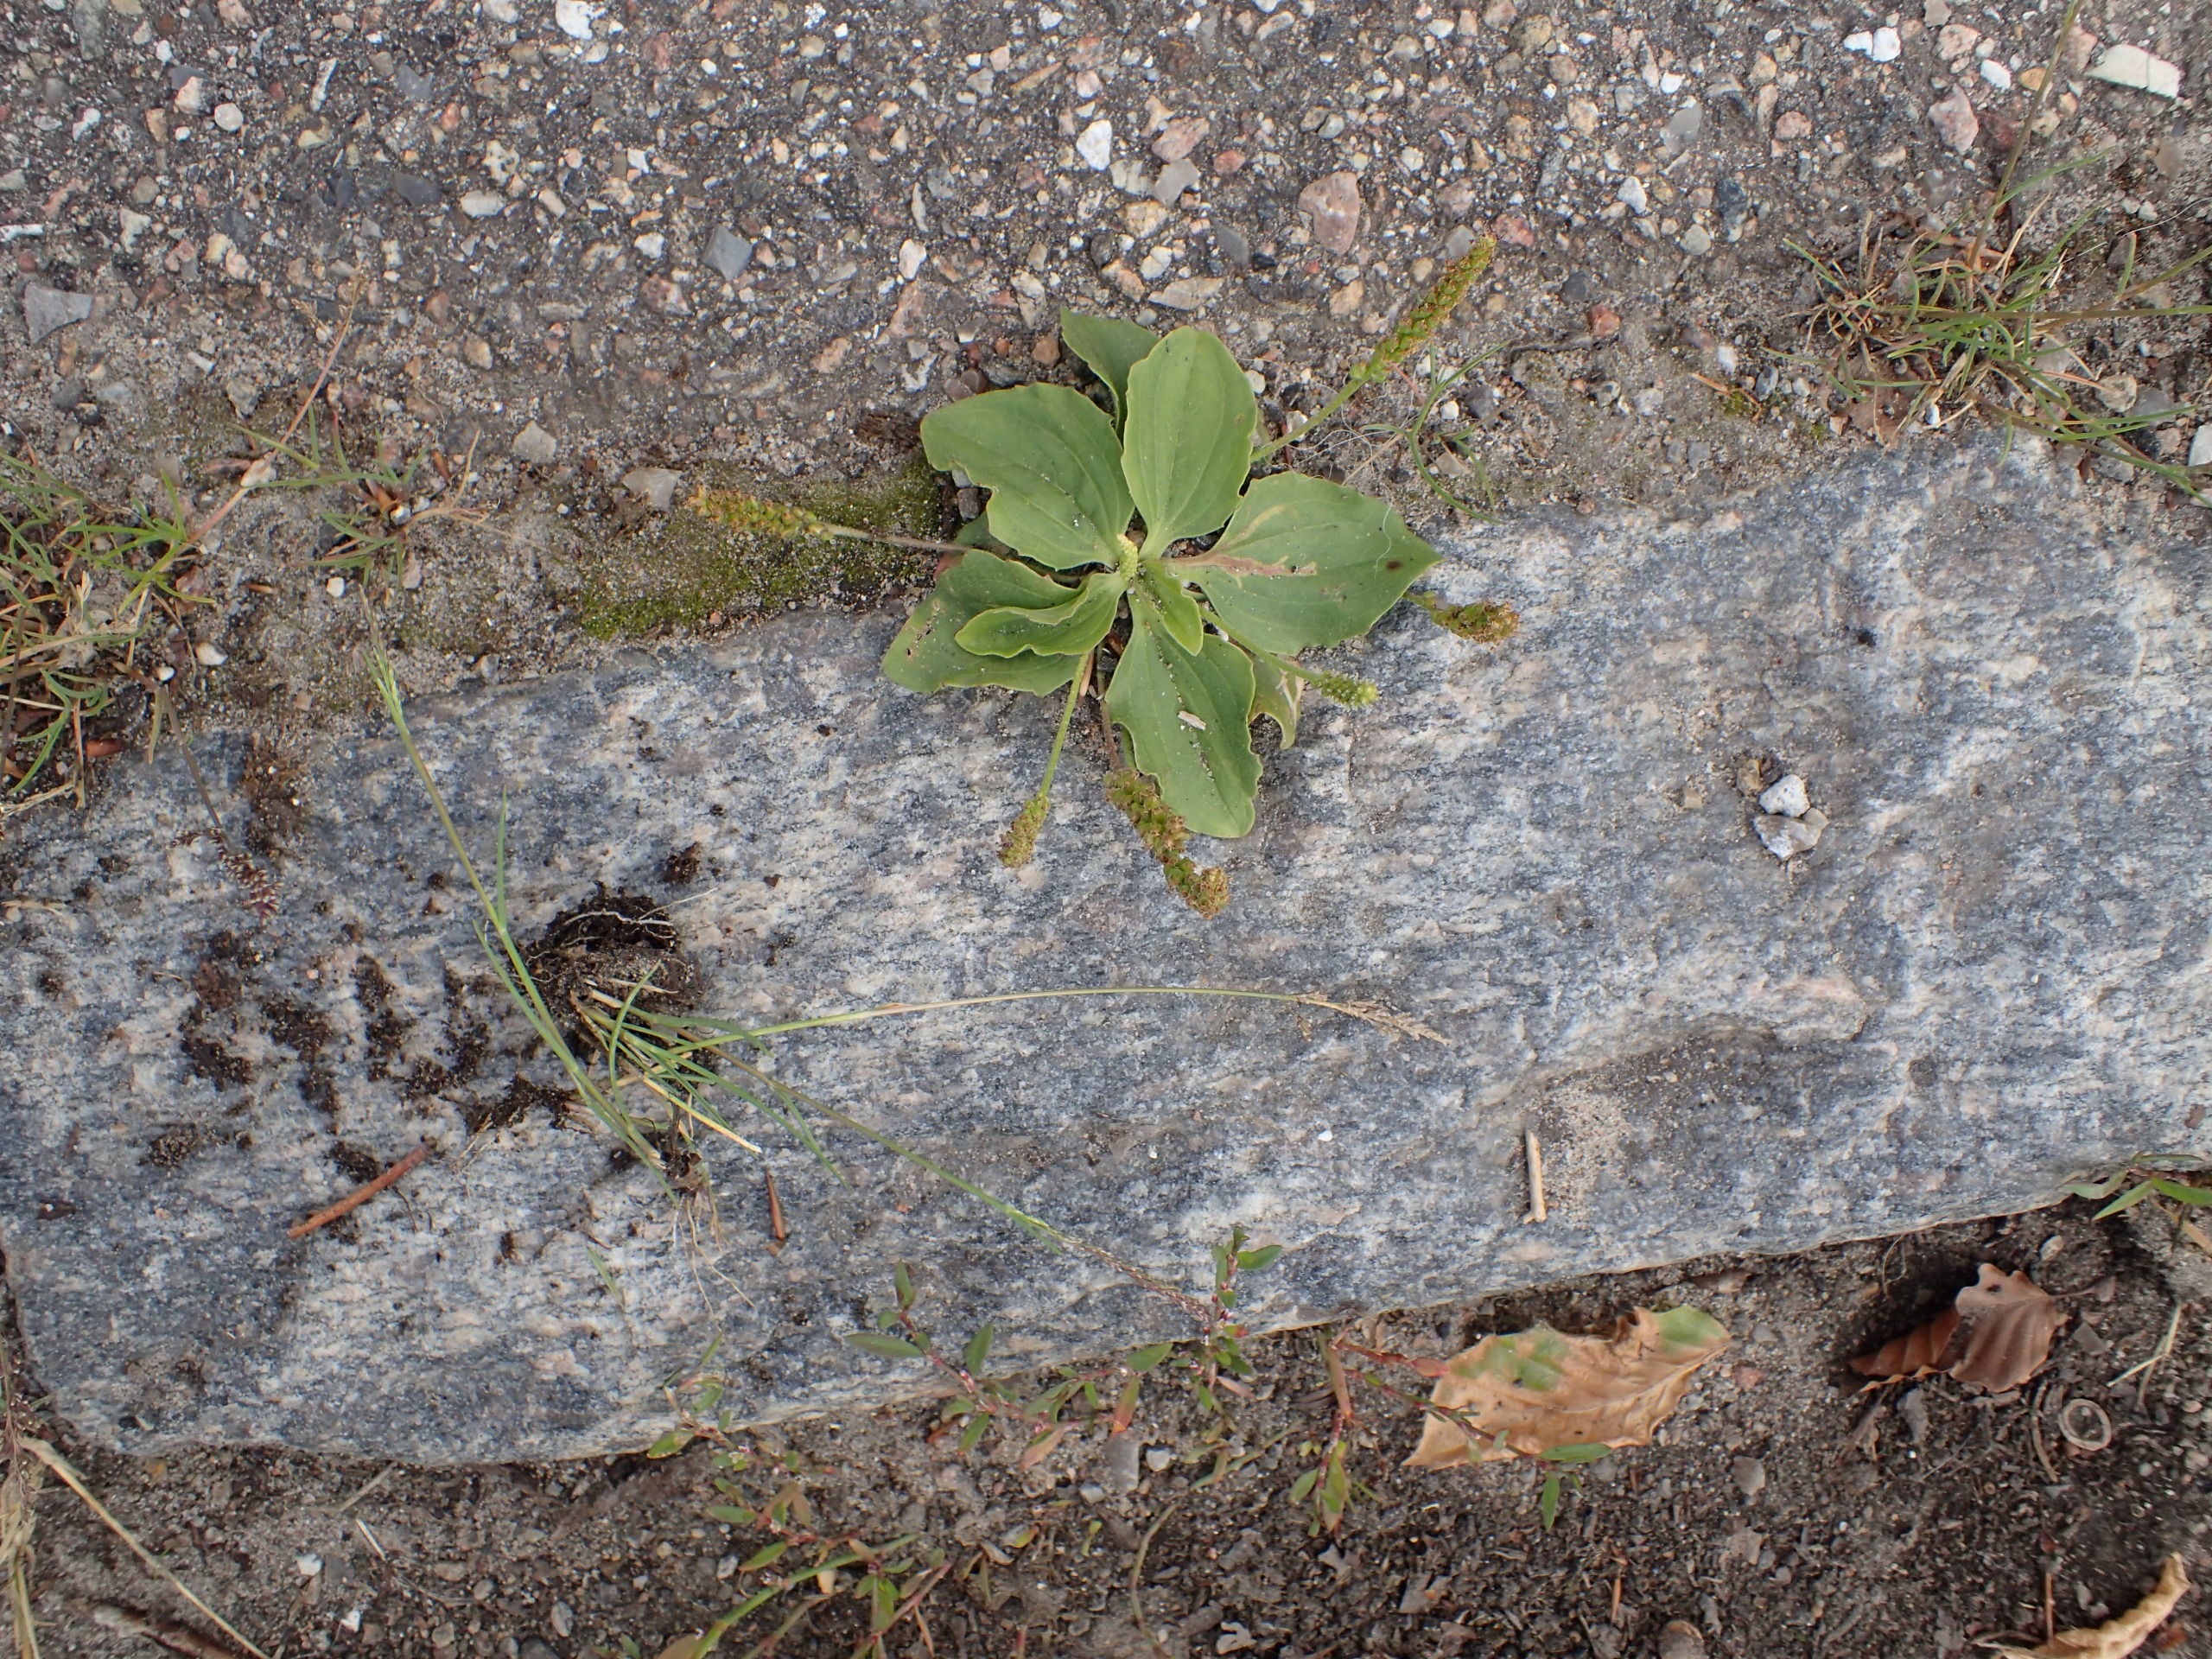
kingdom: Plantae
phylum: Tracheophyta
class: Magnoliopsida
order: Lamiales
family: Plantaginaceae
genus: Plantago
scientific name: Plantago major
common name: Glat vejbred
